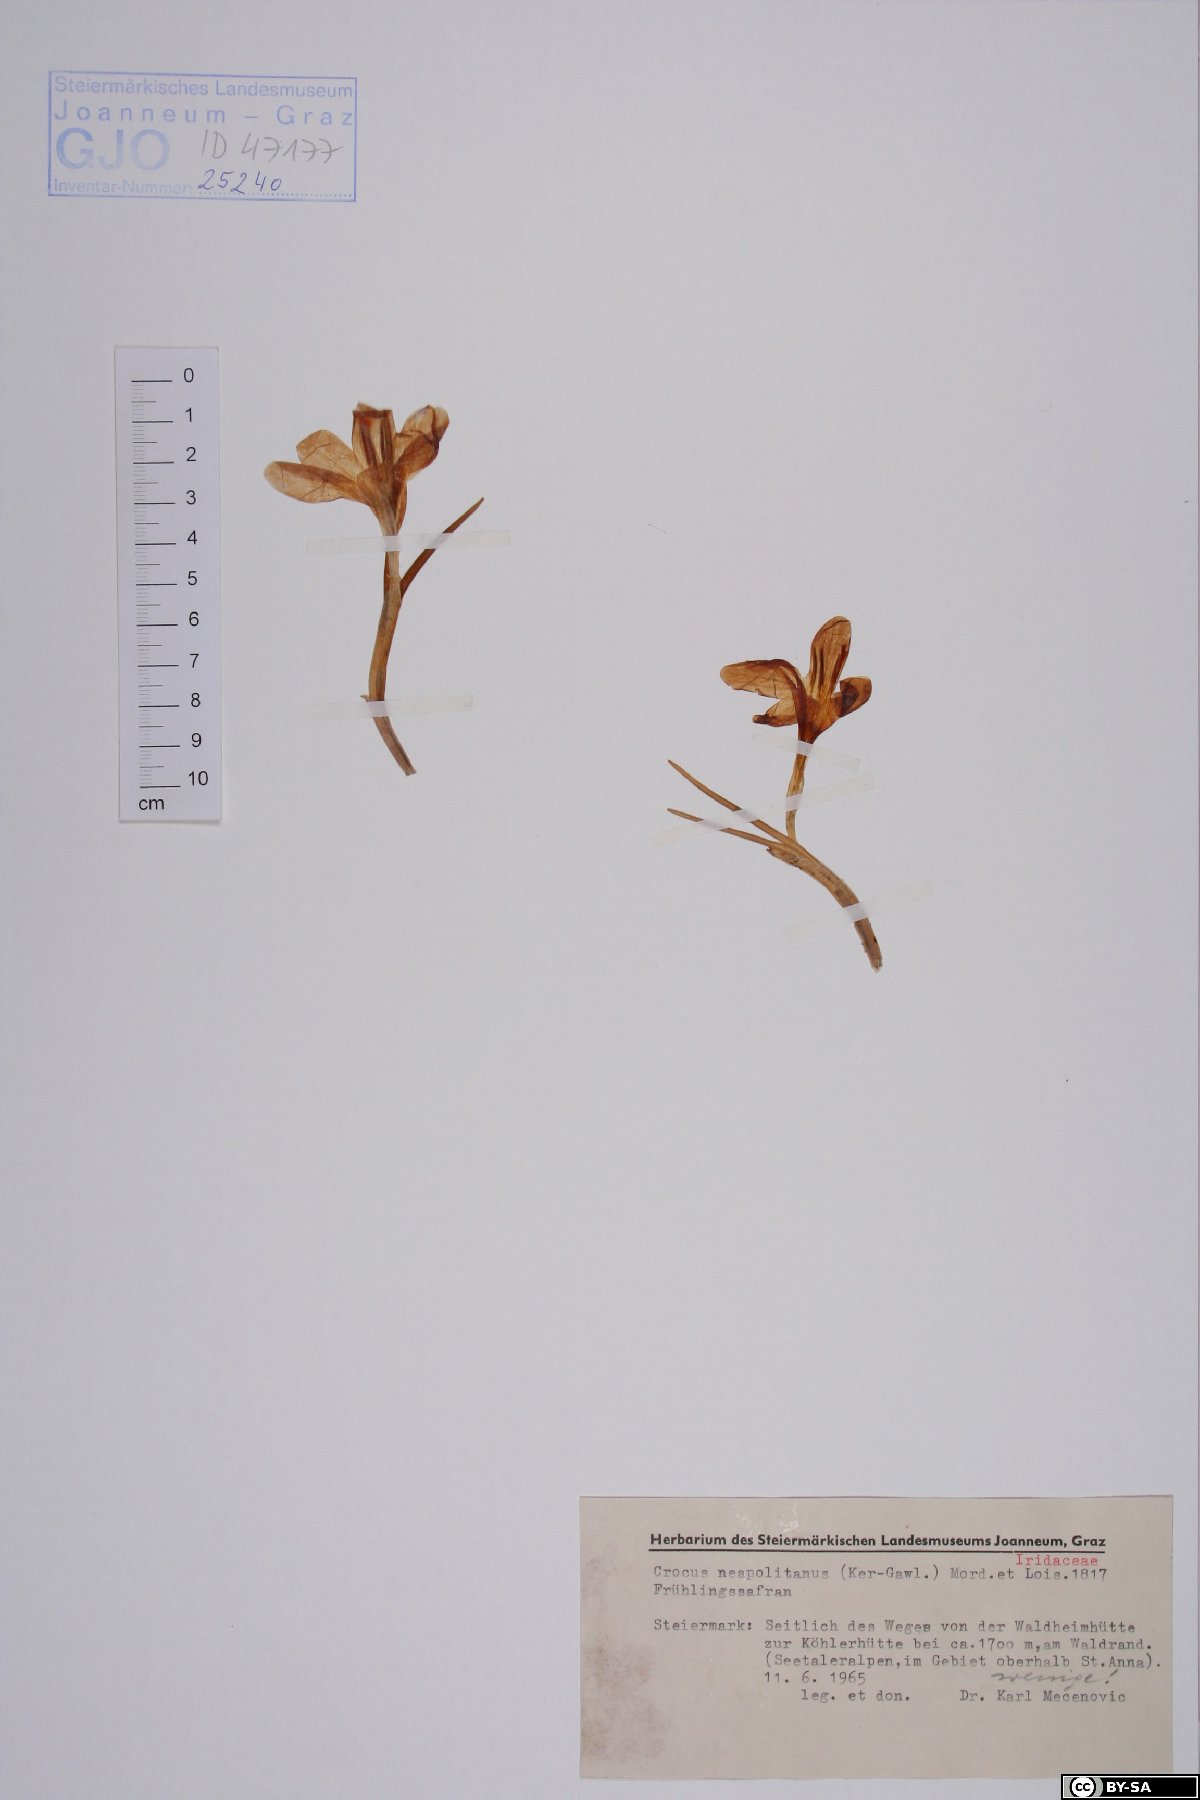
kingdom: Plantae
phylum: Tracheophyta
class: Liliopsida
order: Asparagales
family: Iridaceae
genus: Crocus
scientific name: Crocus vernus
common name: Spring crocus
